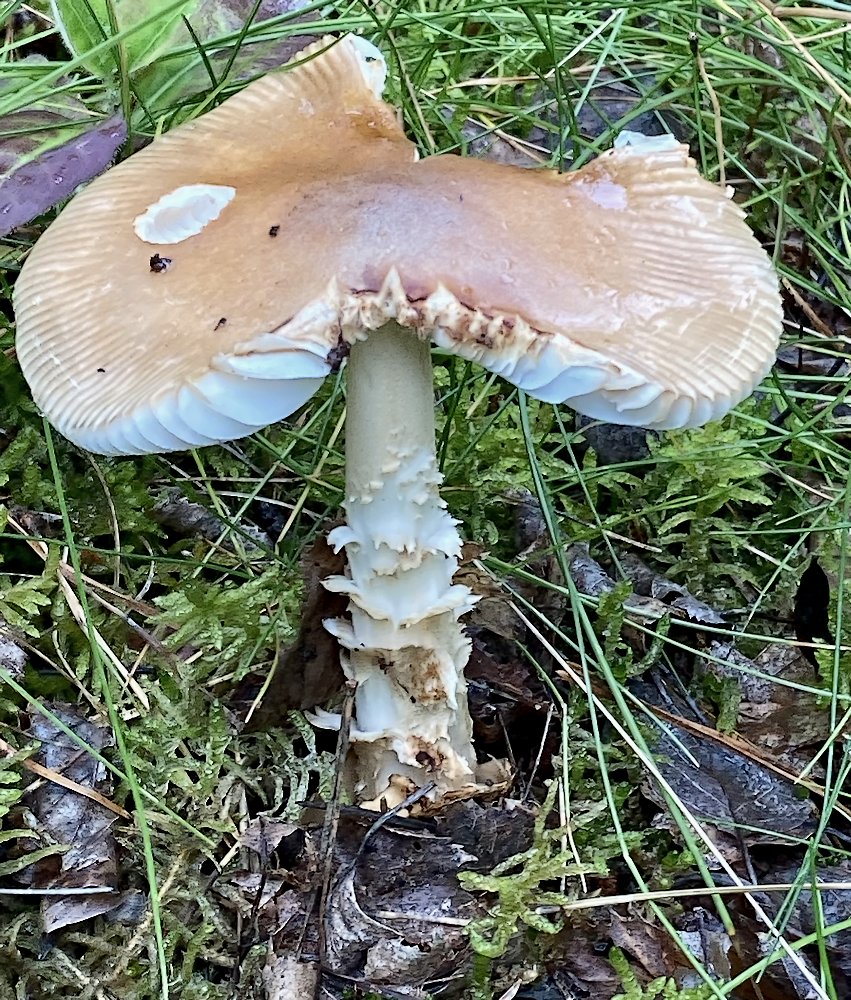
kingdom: Fungi
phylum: Basidiomycota
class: Agaricomycetes
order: Agaricales
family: Amanitaceae
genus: Amanita
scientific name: Amanita
